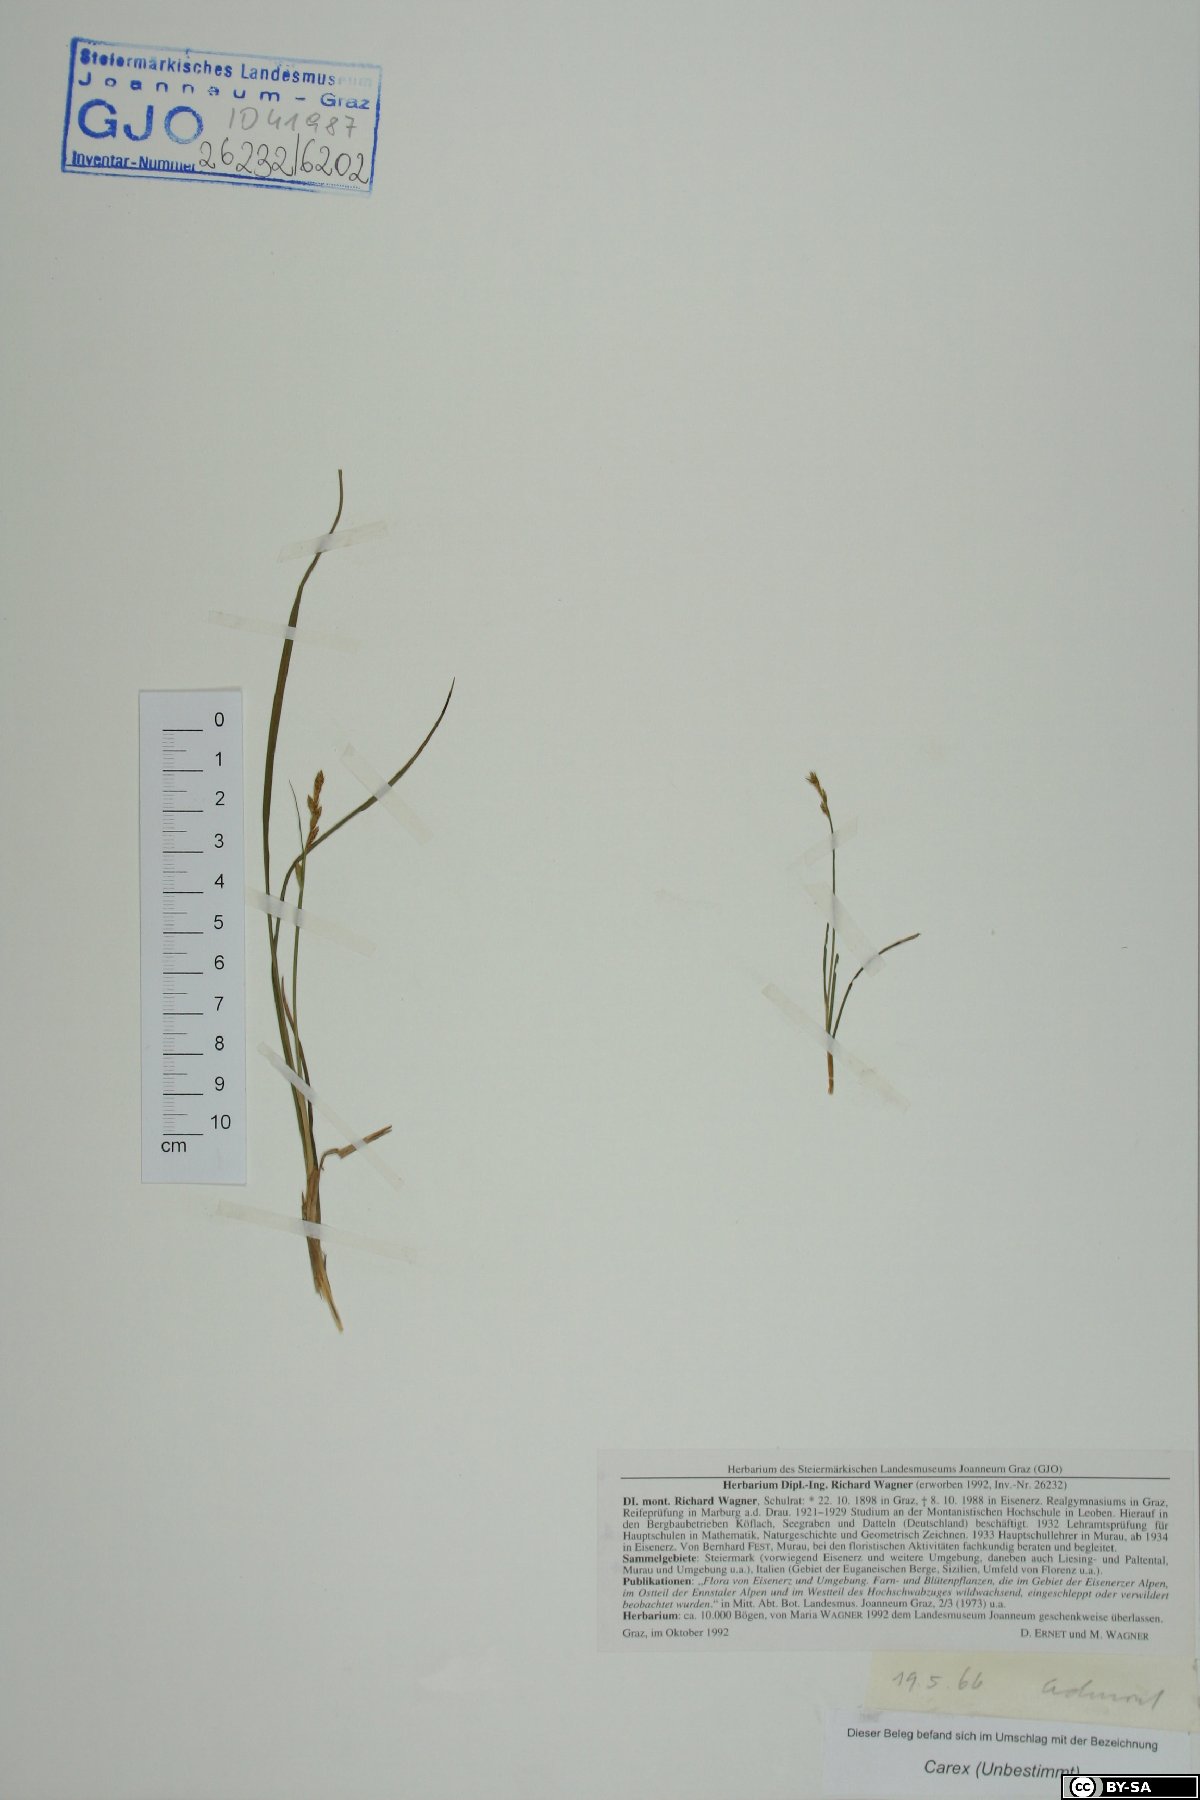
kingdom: Plantae
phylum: Tracheophyta
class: Liliopsida
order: Poales
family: Cyperaceae
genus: Carex
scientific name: Carex
